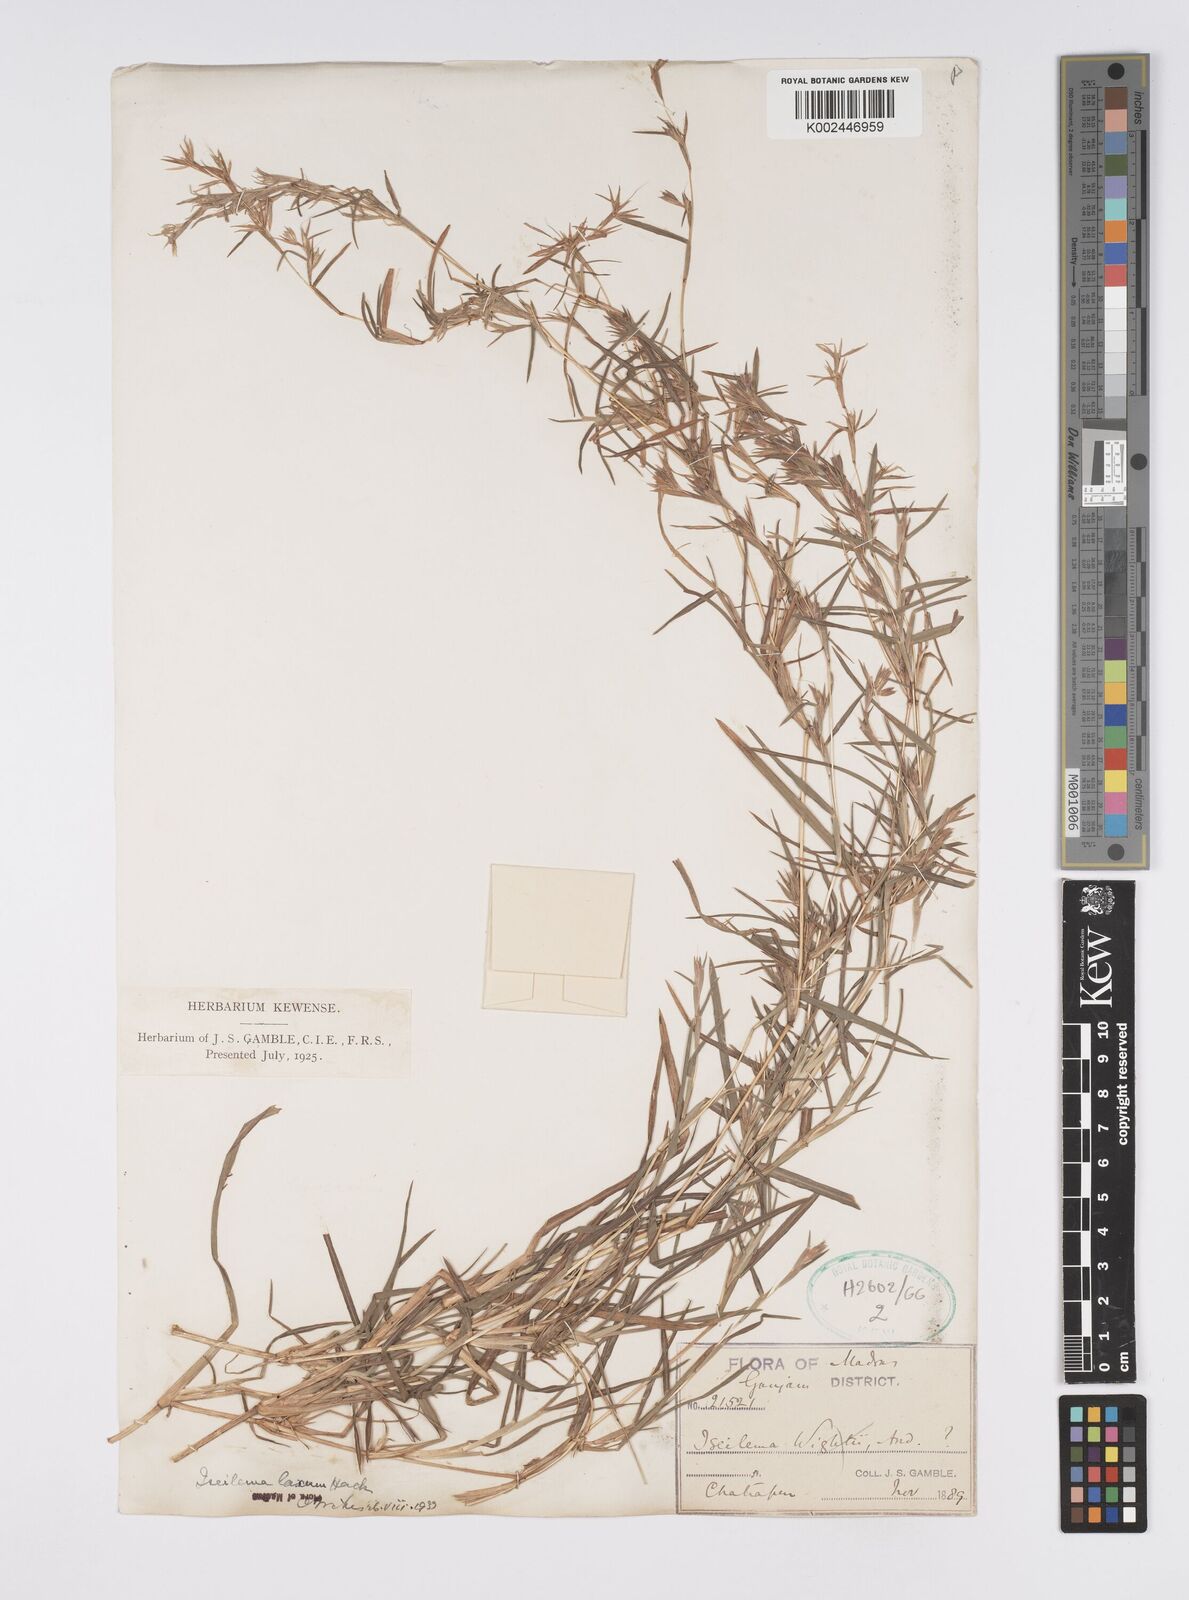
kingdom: Plantae
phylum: Tracheophyta
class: Liliopsida
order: Poales
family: Poaceae
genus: Iseilema
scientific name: Iseilema prostratum
